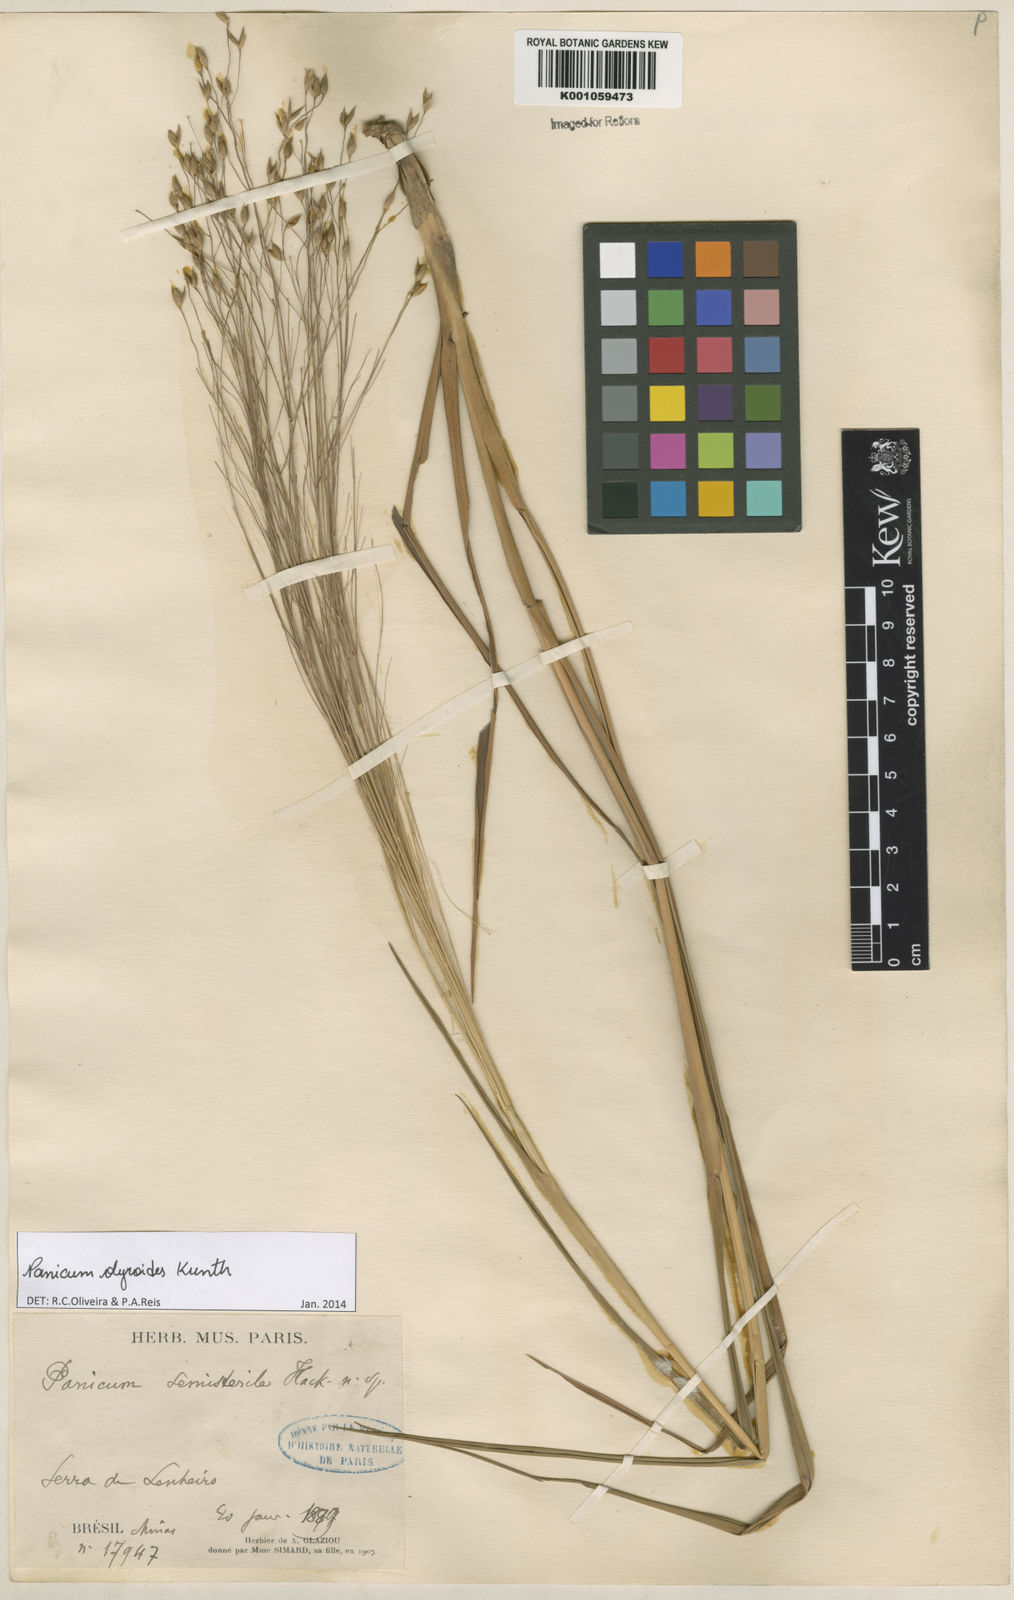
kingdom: Plantae
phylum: Tracheophyta
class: Liliopsida
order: Poales
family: Poaceae
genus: Panicum
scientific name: Panicum olyroides
